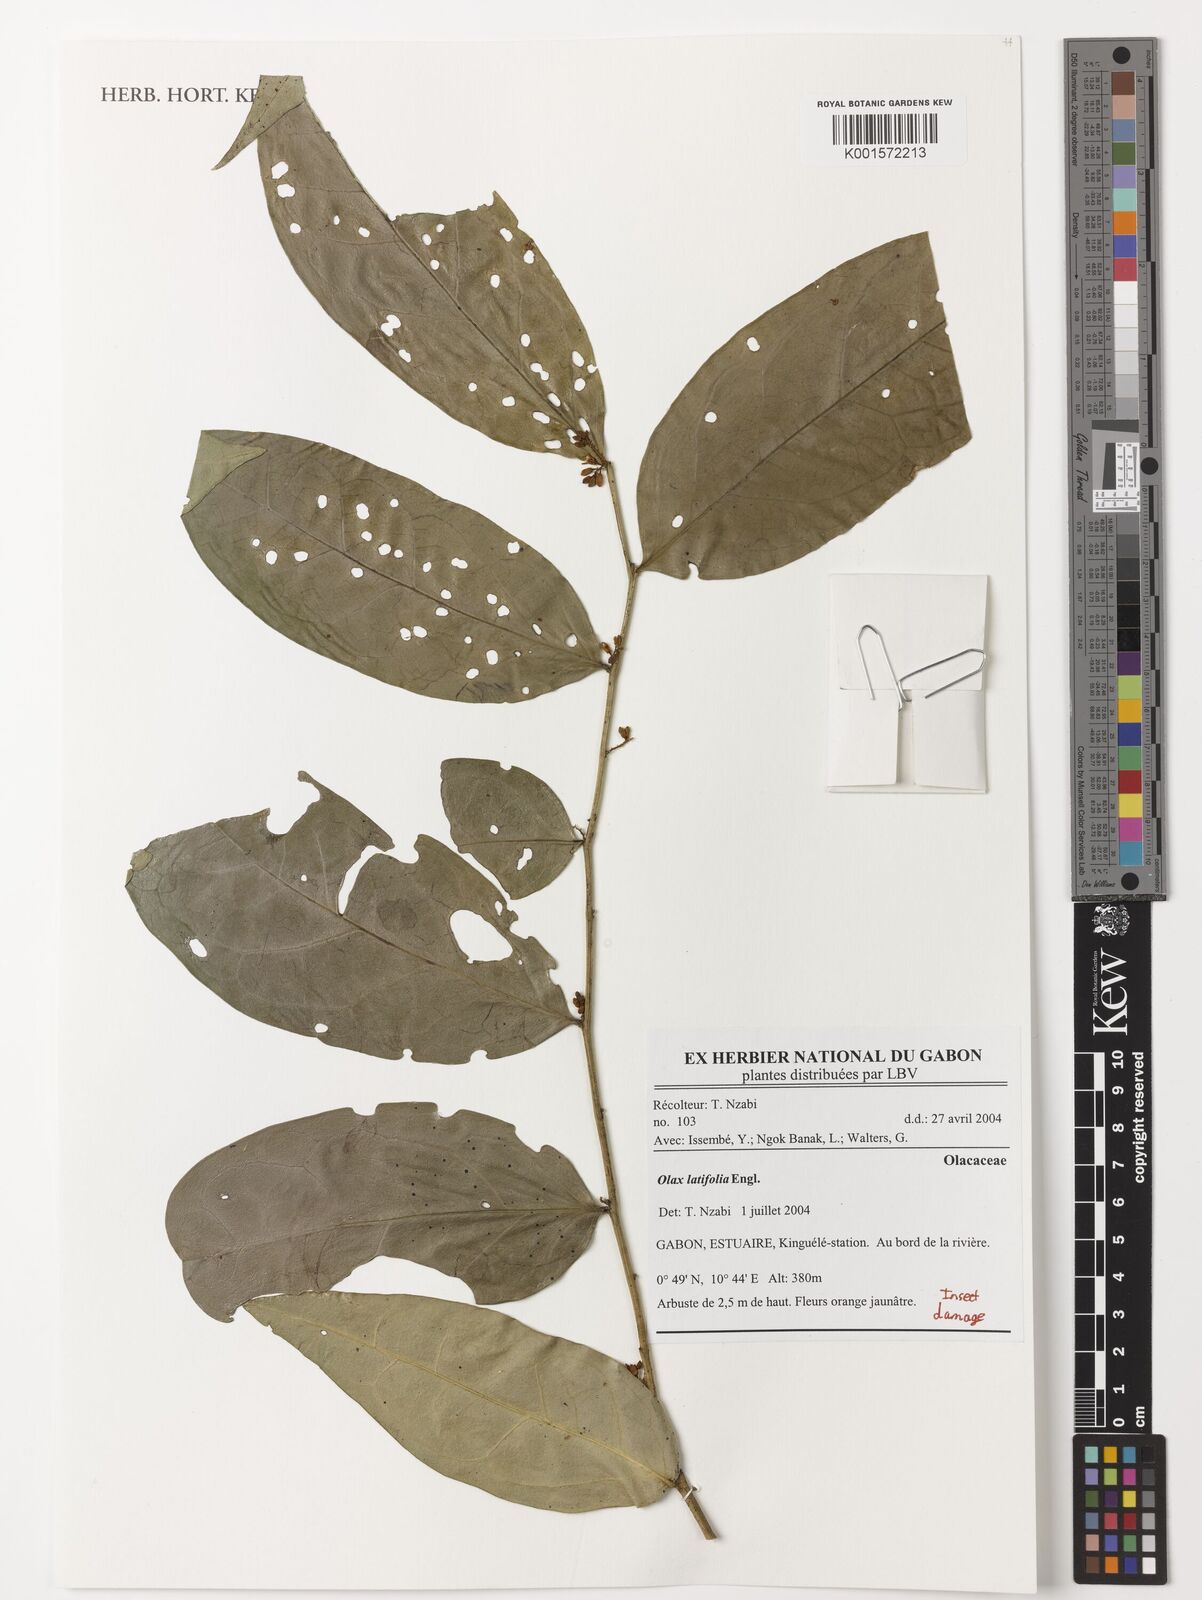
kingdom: Plantae
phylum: Tracheophyta
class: Magnoliopsida
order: Santalales
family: Olacaceae
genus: Olax
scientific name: Olax latifolia
